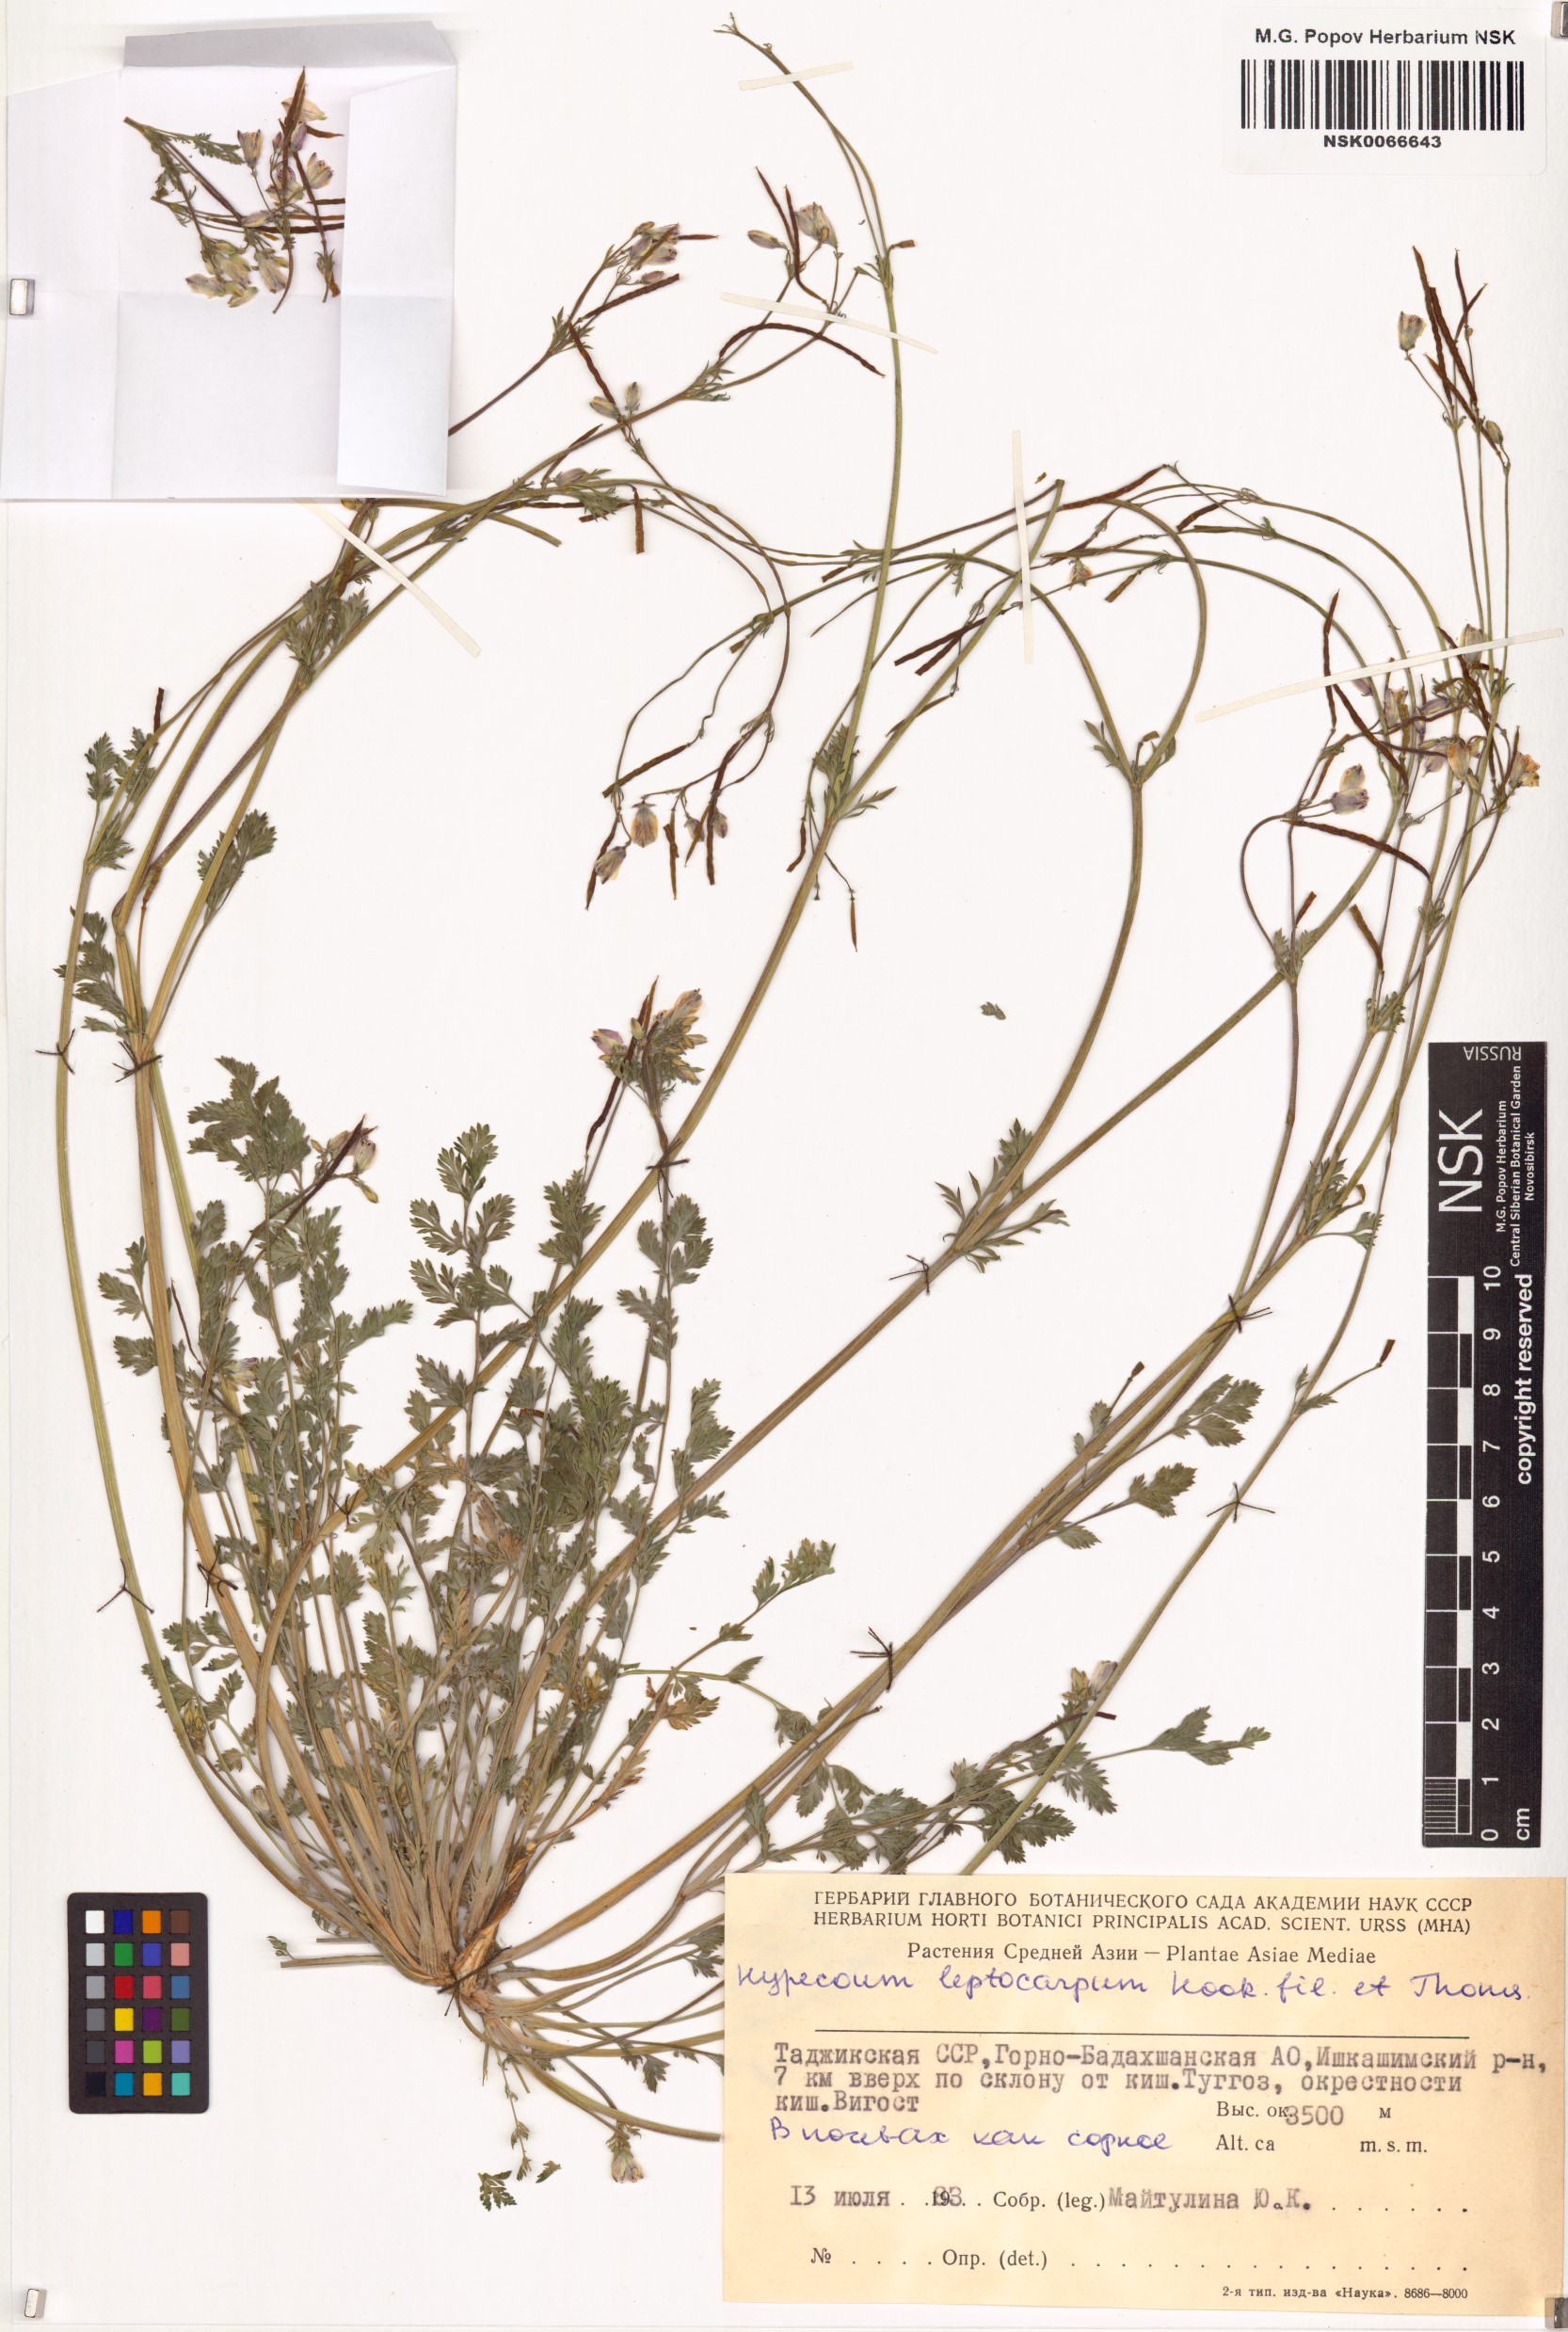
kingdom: Plantae
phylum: Tracheophyta
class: Magnoliopsida
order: Ranunculales
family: Papaveraceae
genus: Hypecoum
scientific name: Hypecoum leptocarpum
